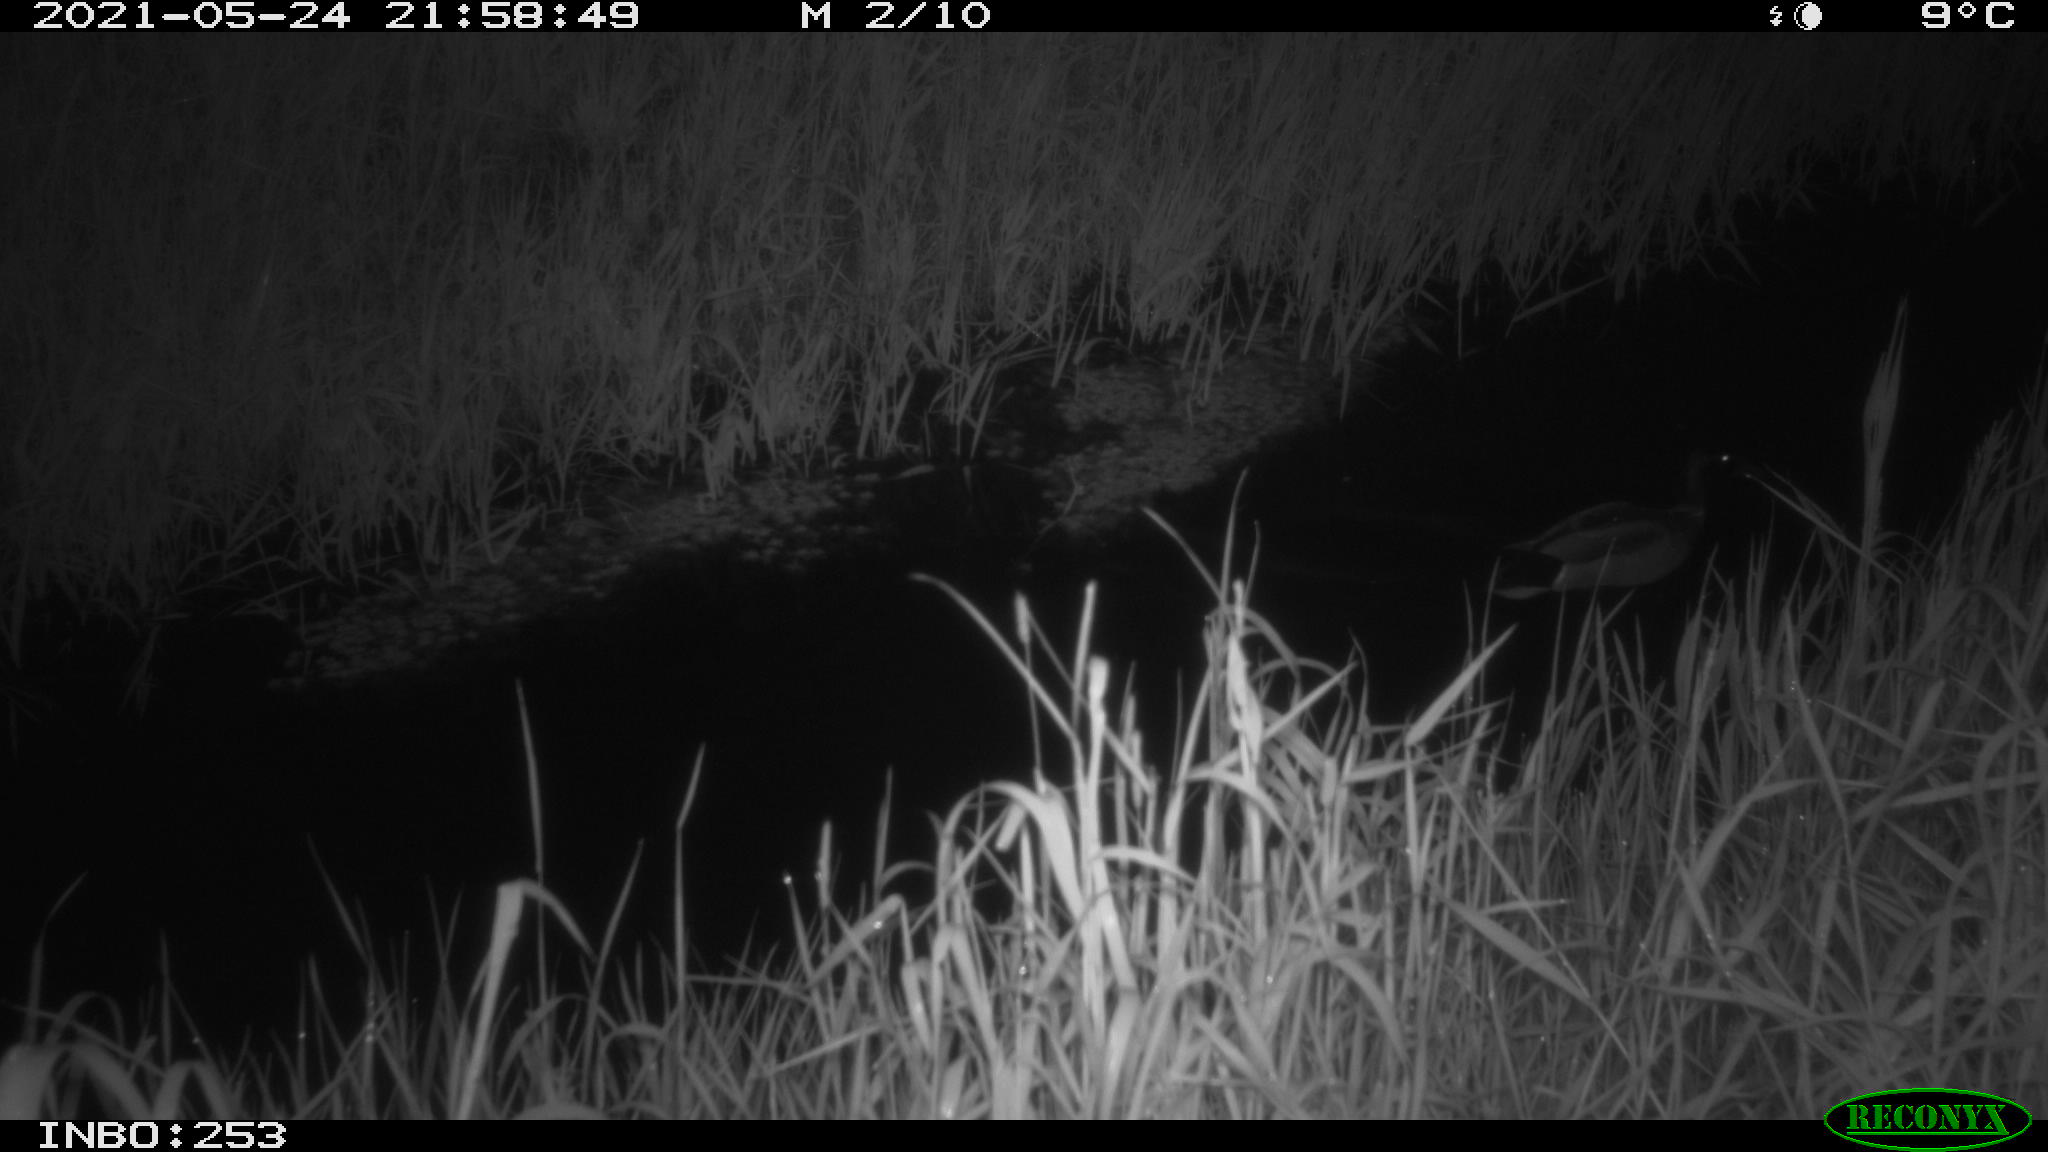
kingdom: Animalia
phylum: Chordata
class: Aves
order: Anseriformes
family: Anatidae
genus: Anas
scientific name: Anas platyrhynchos
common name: Mallard
